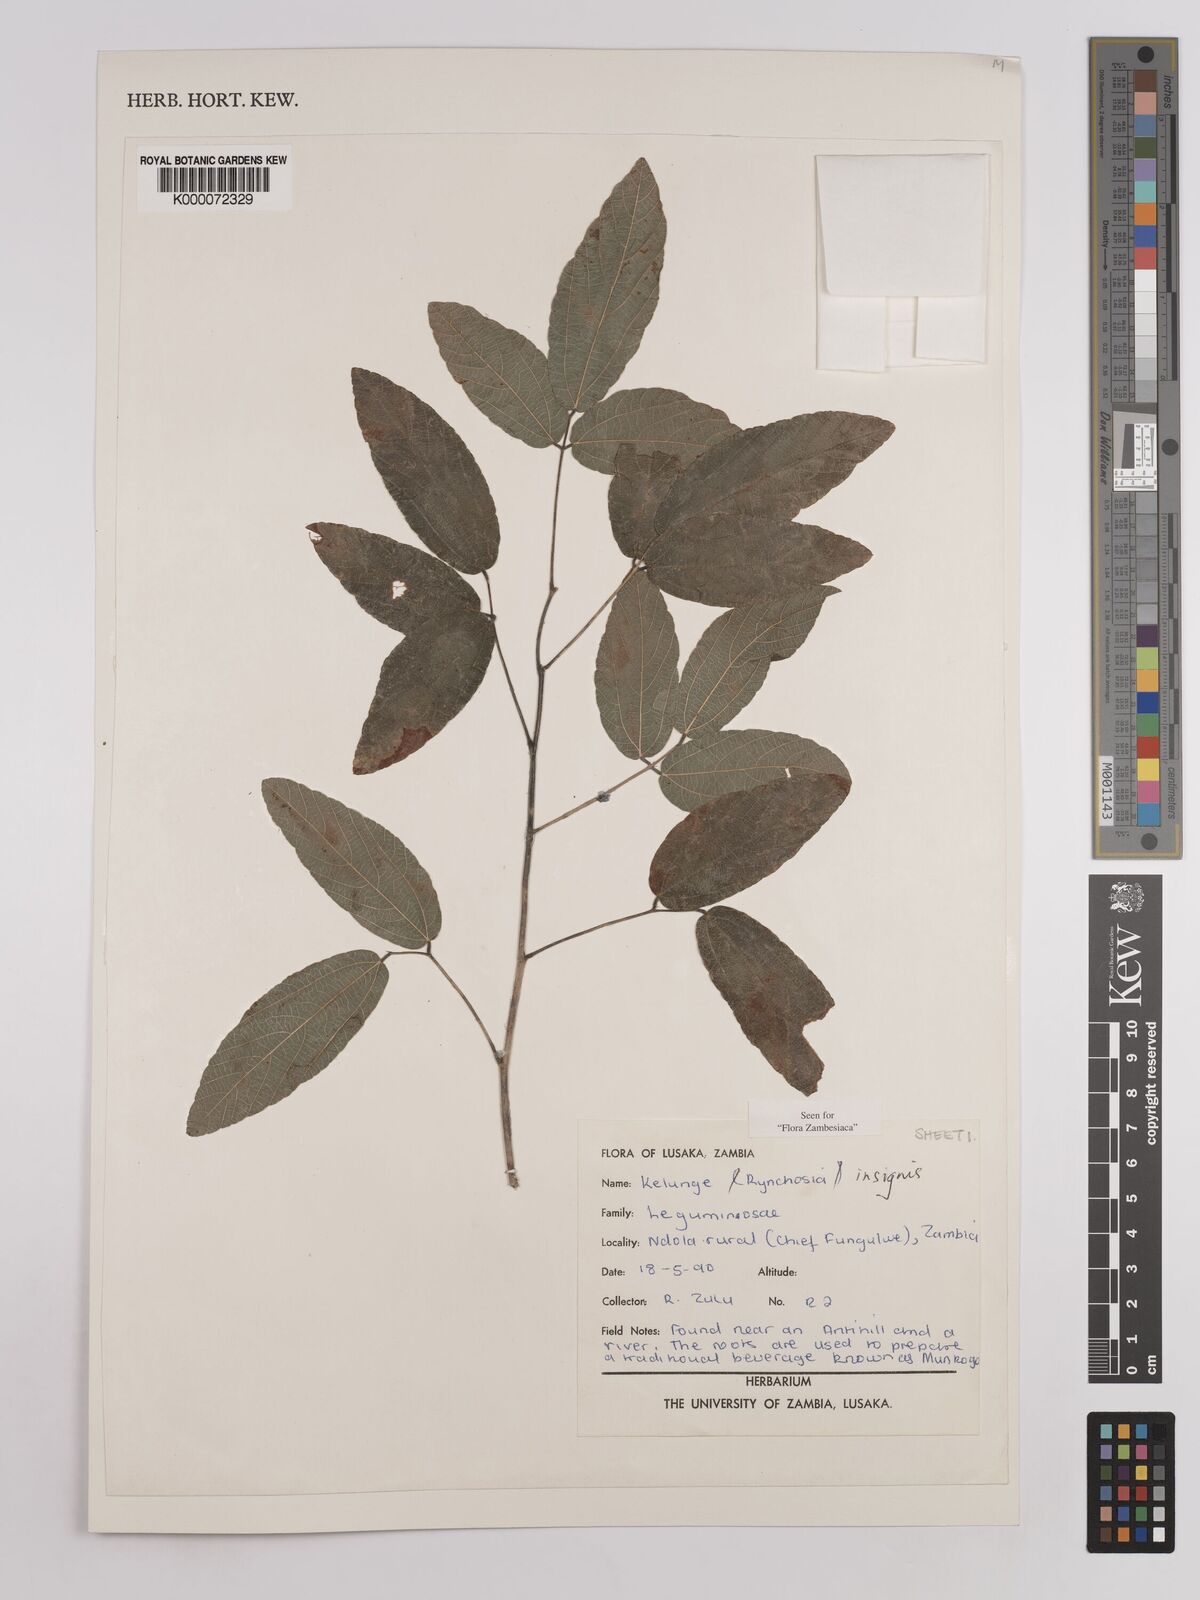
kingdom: Plantae
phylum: Tracheophyta
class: Magnoliopsida
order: Fabales
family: Fabaceae
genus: Rhynchosia
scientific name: Rhynchosia insignis
